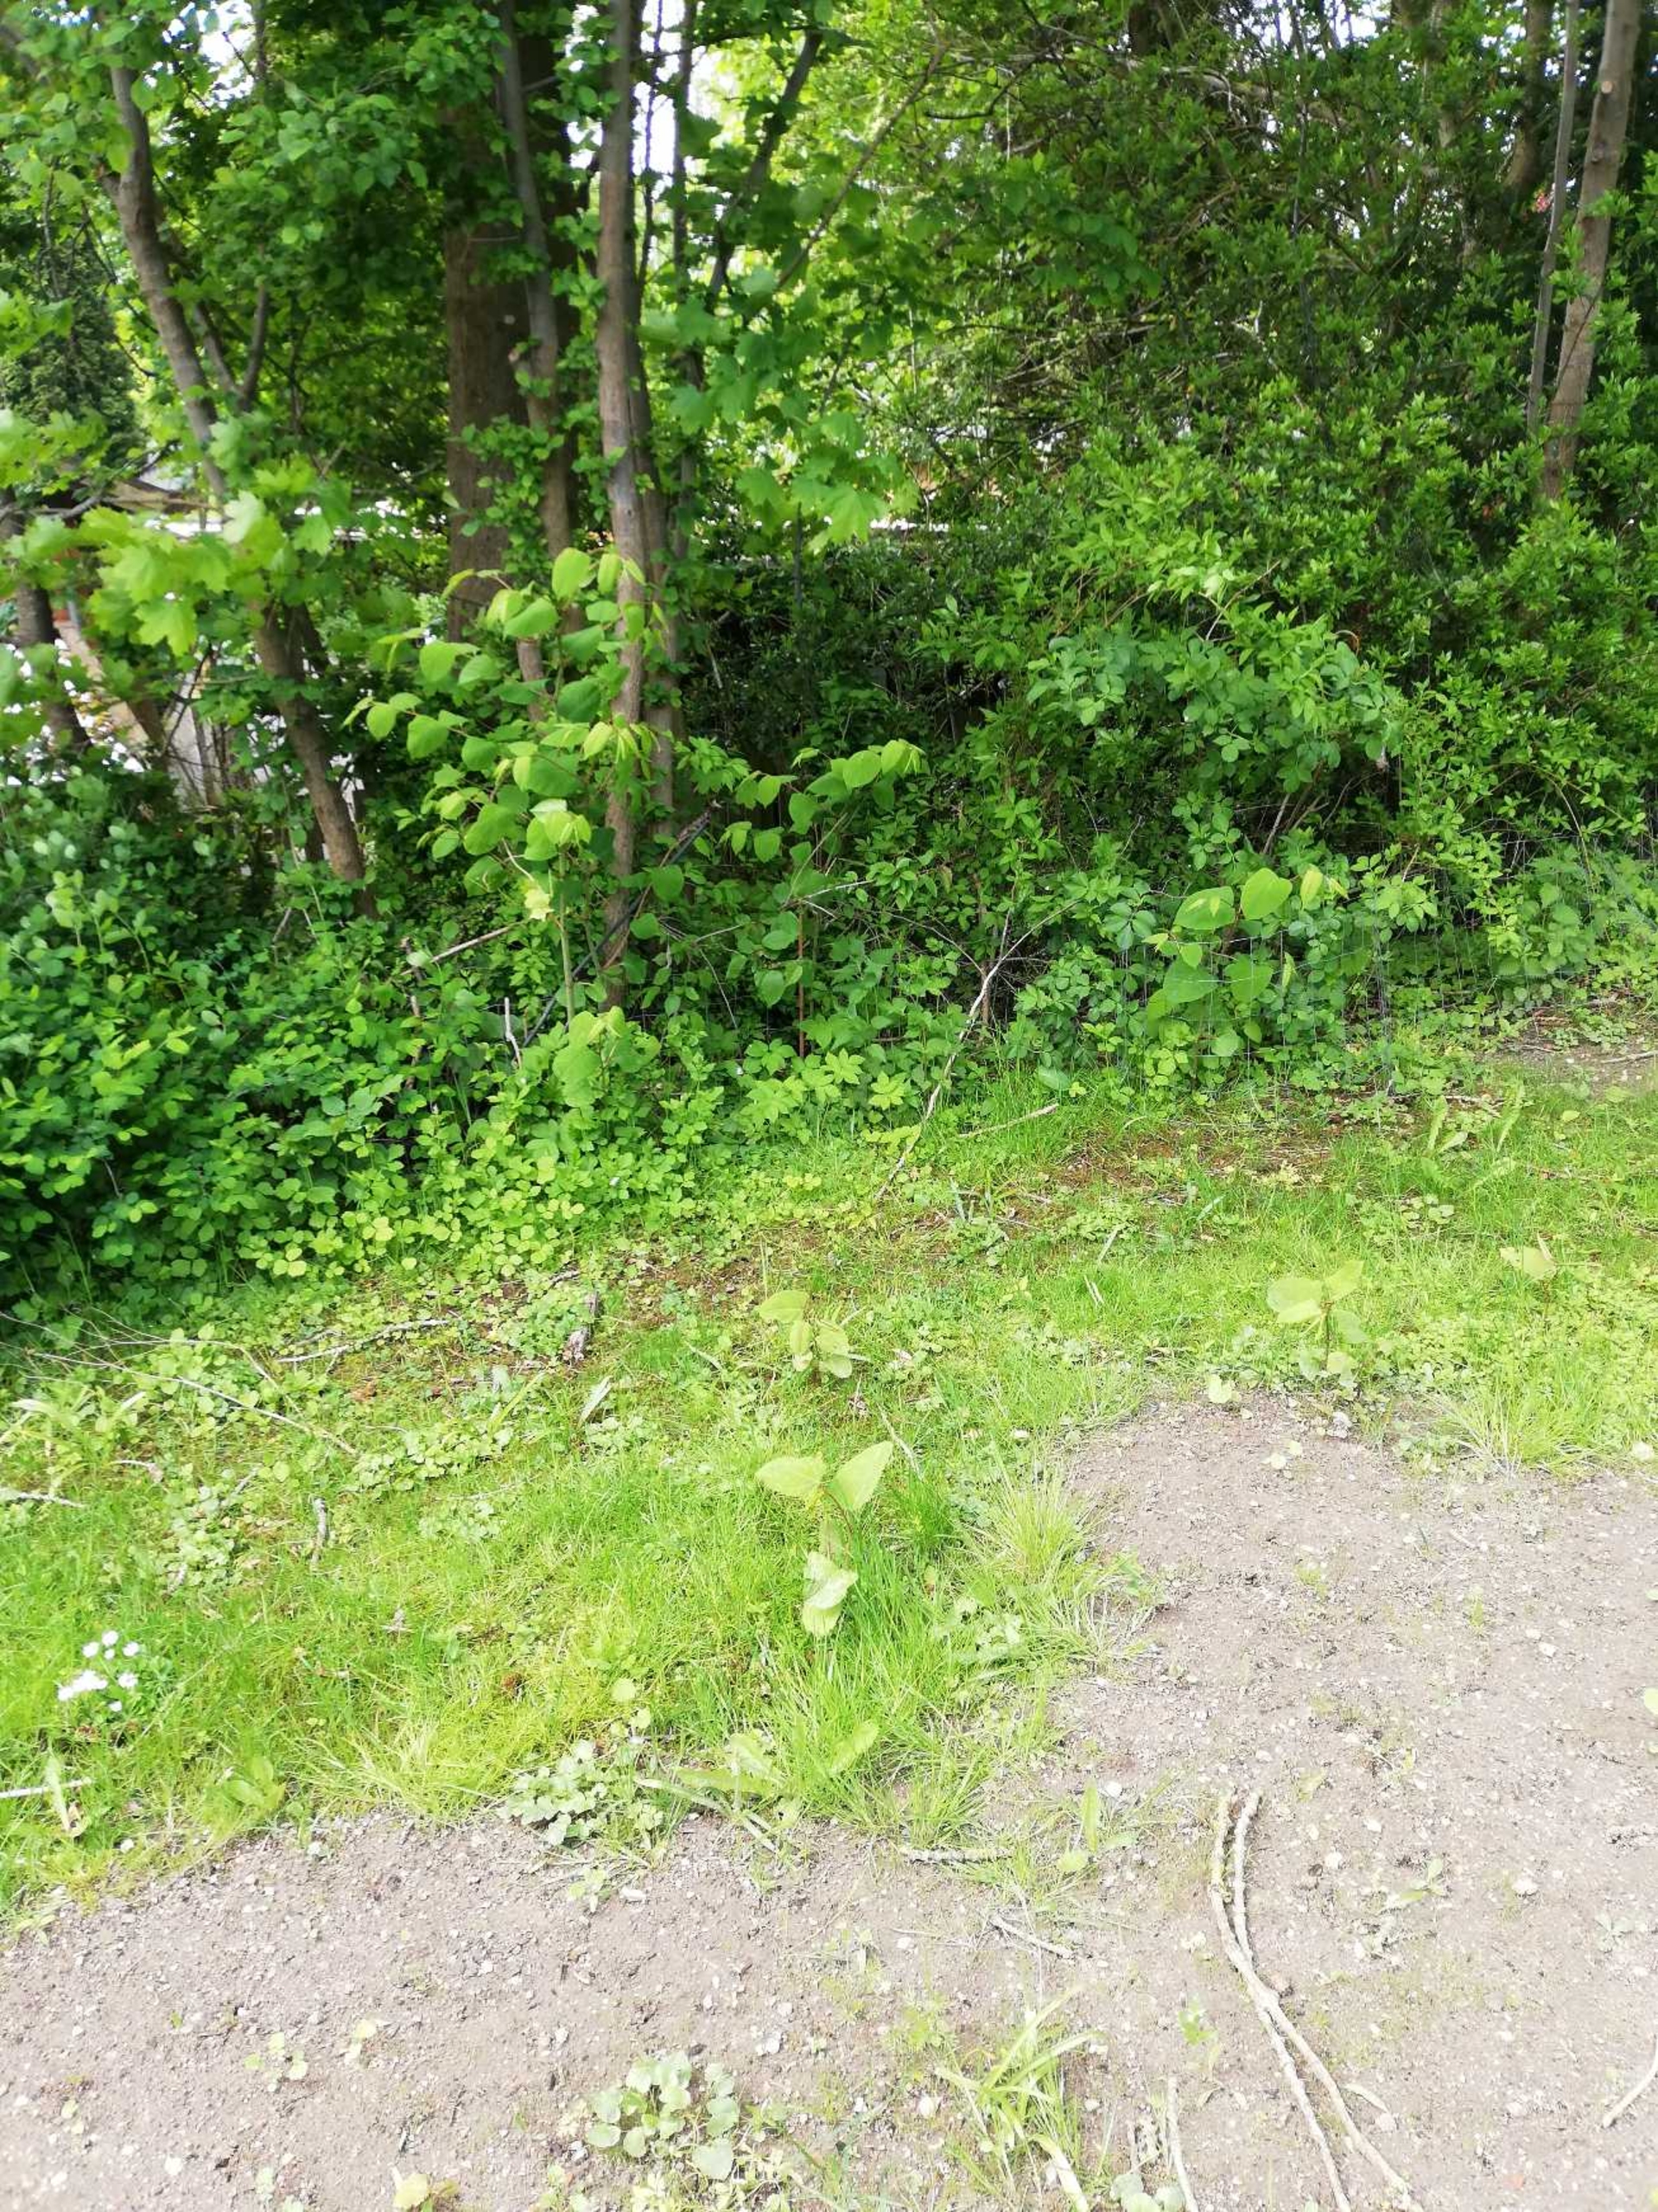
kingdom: Plantae
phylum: Tracheophyta
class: Magnoliopsida
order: Caryophyllales
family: Polygonaceae
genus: Reynoutria
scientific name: Reynoutria sachalinensis
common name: Kæmpe-pileurt
